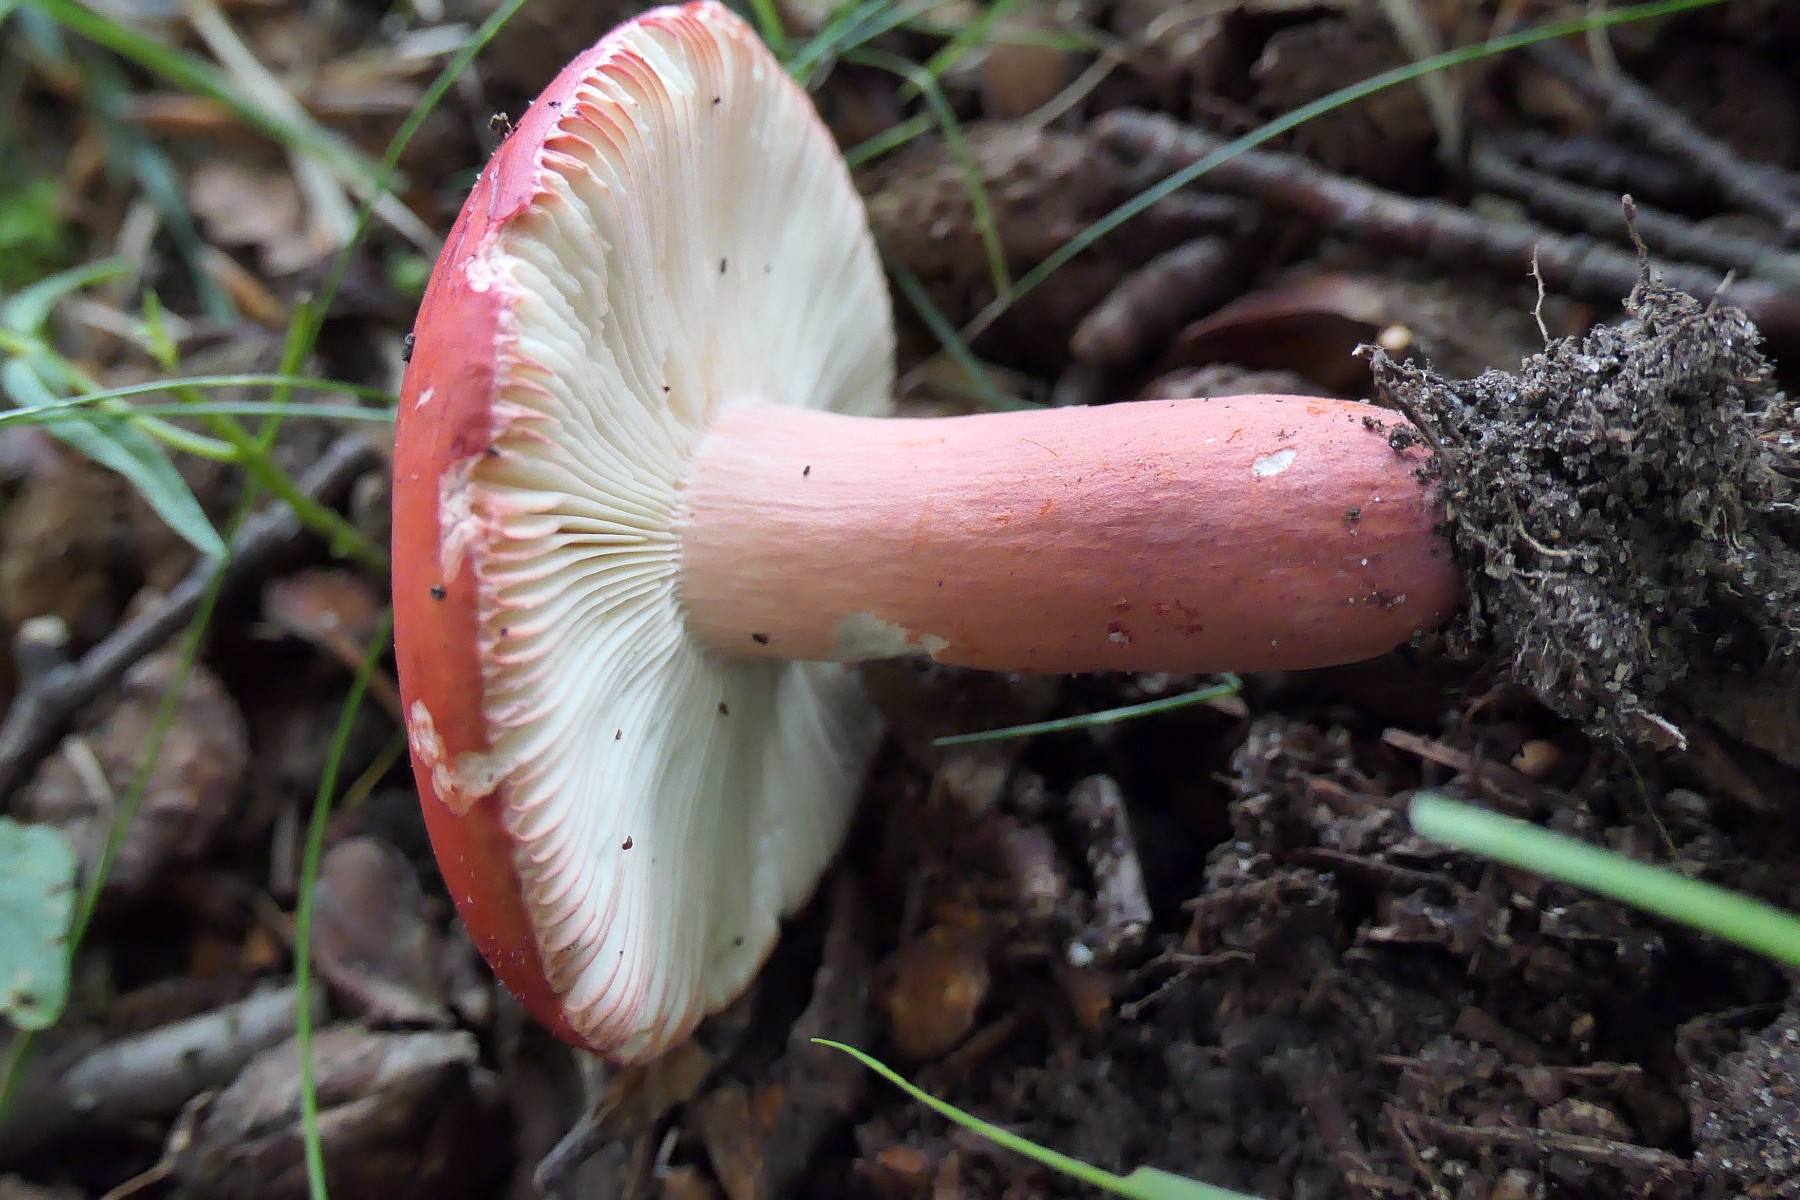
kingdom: Fungi
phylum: Basidiomycota
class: Agaricomycetes
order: Russulales
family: Russulaceae
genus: Russula
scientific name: Russula rosea
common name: fastkødet skørhat
